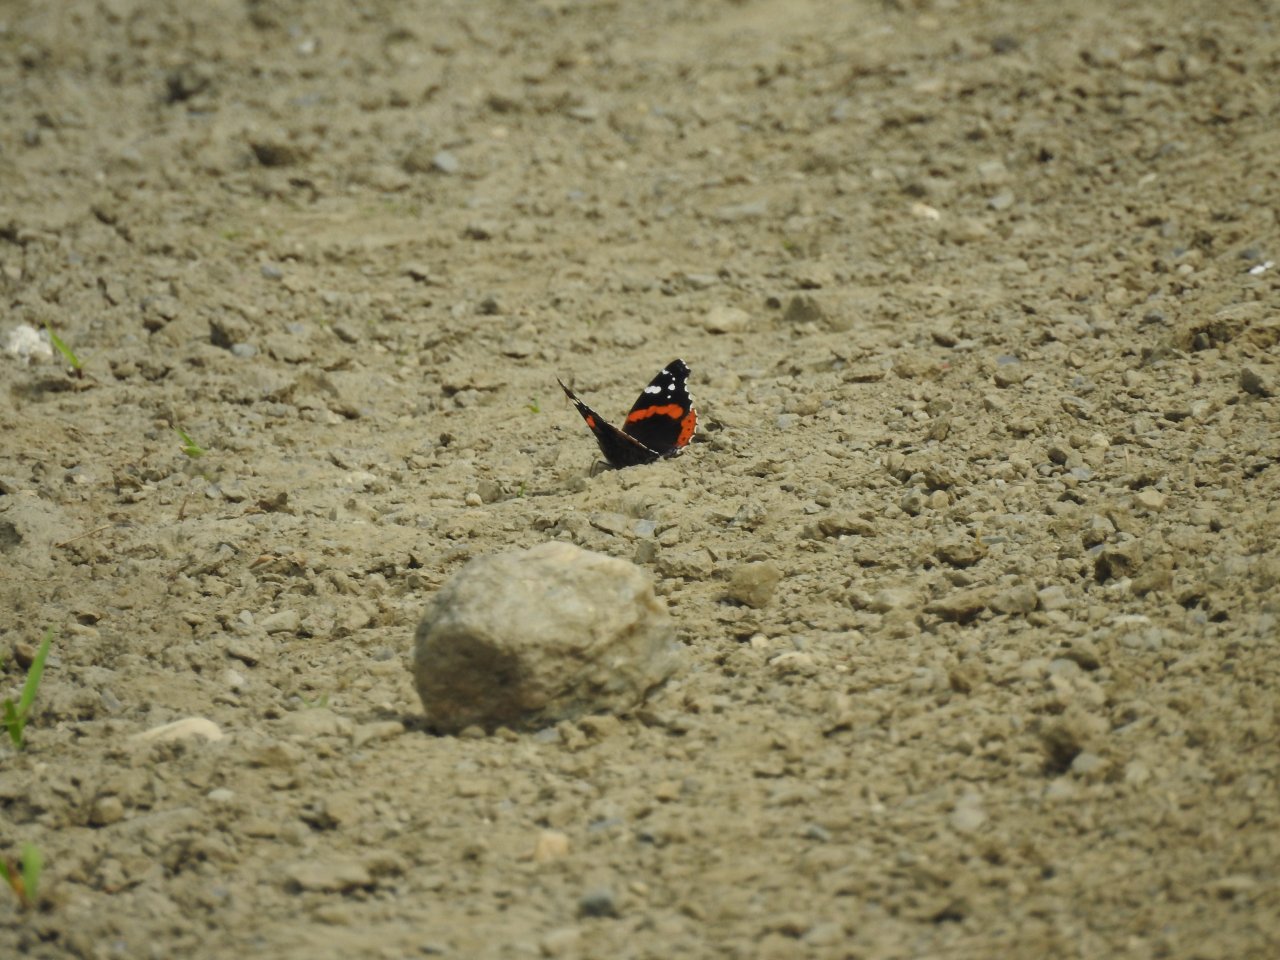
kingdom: Animalia
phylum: Arthropoda
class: Insecta
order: Lepidoptera
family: Nymphalidae
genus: Vanessa
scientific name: Vanessa atalanta
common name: Red Admiral
